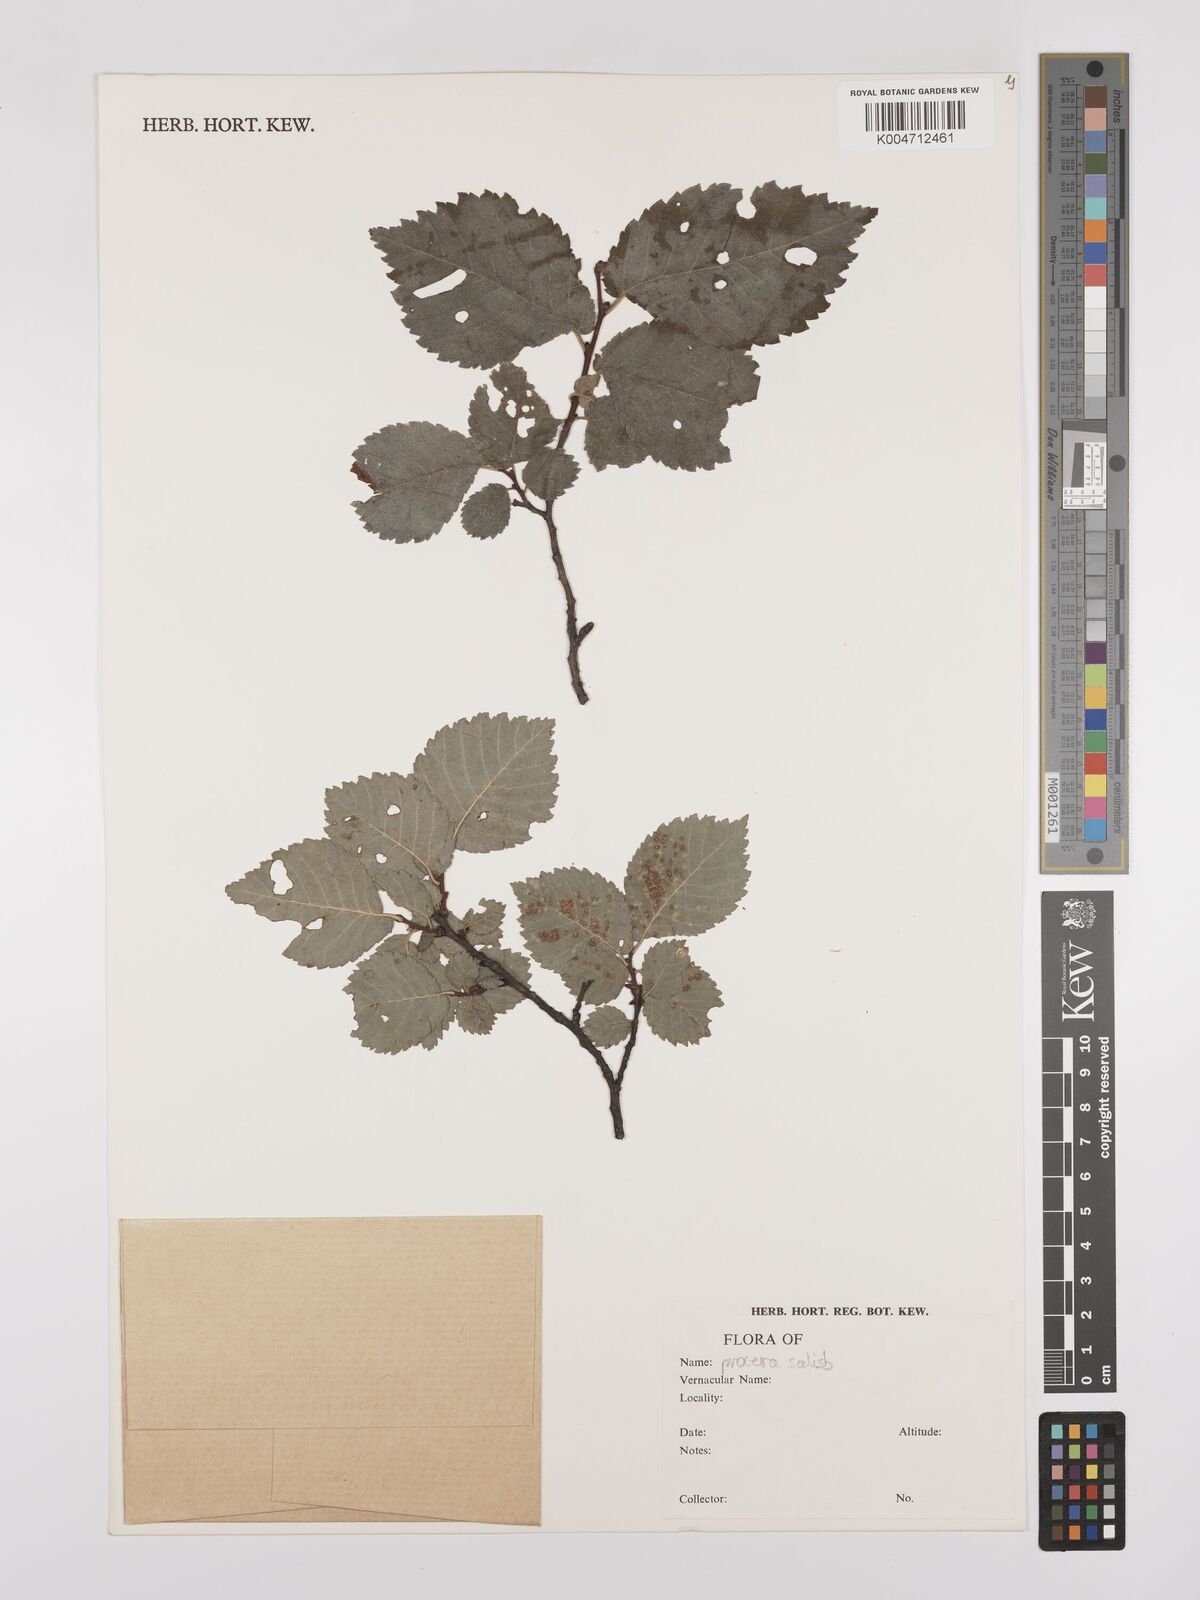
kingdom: Plantae
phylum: Tracheophyta
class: Magnoliopsida
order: Rosales
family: Ulmaceae
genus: Ulmus
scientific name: Ulmus minor
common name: Small-leaved elm
